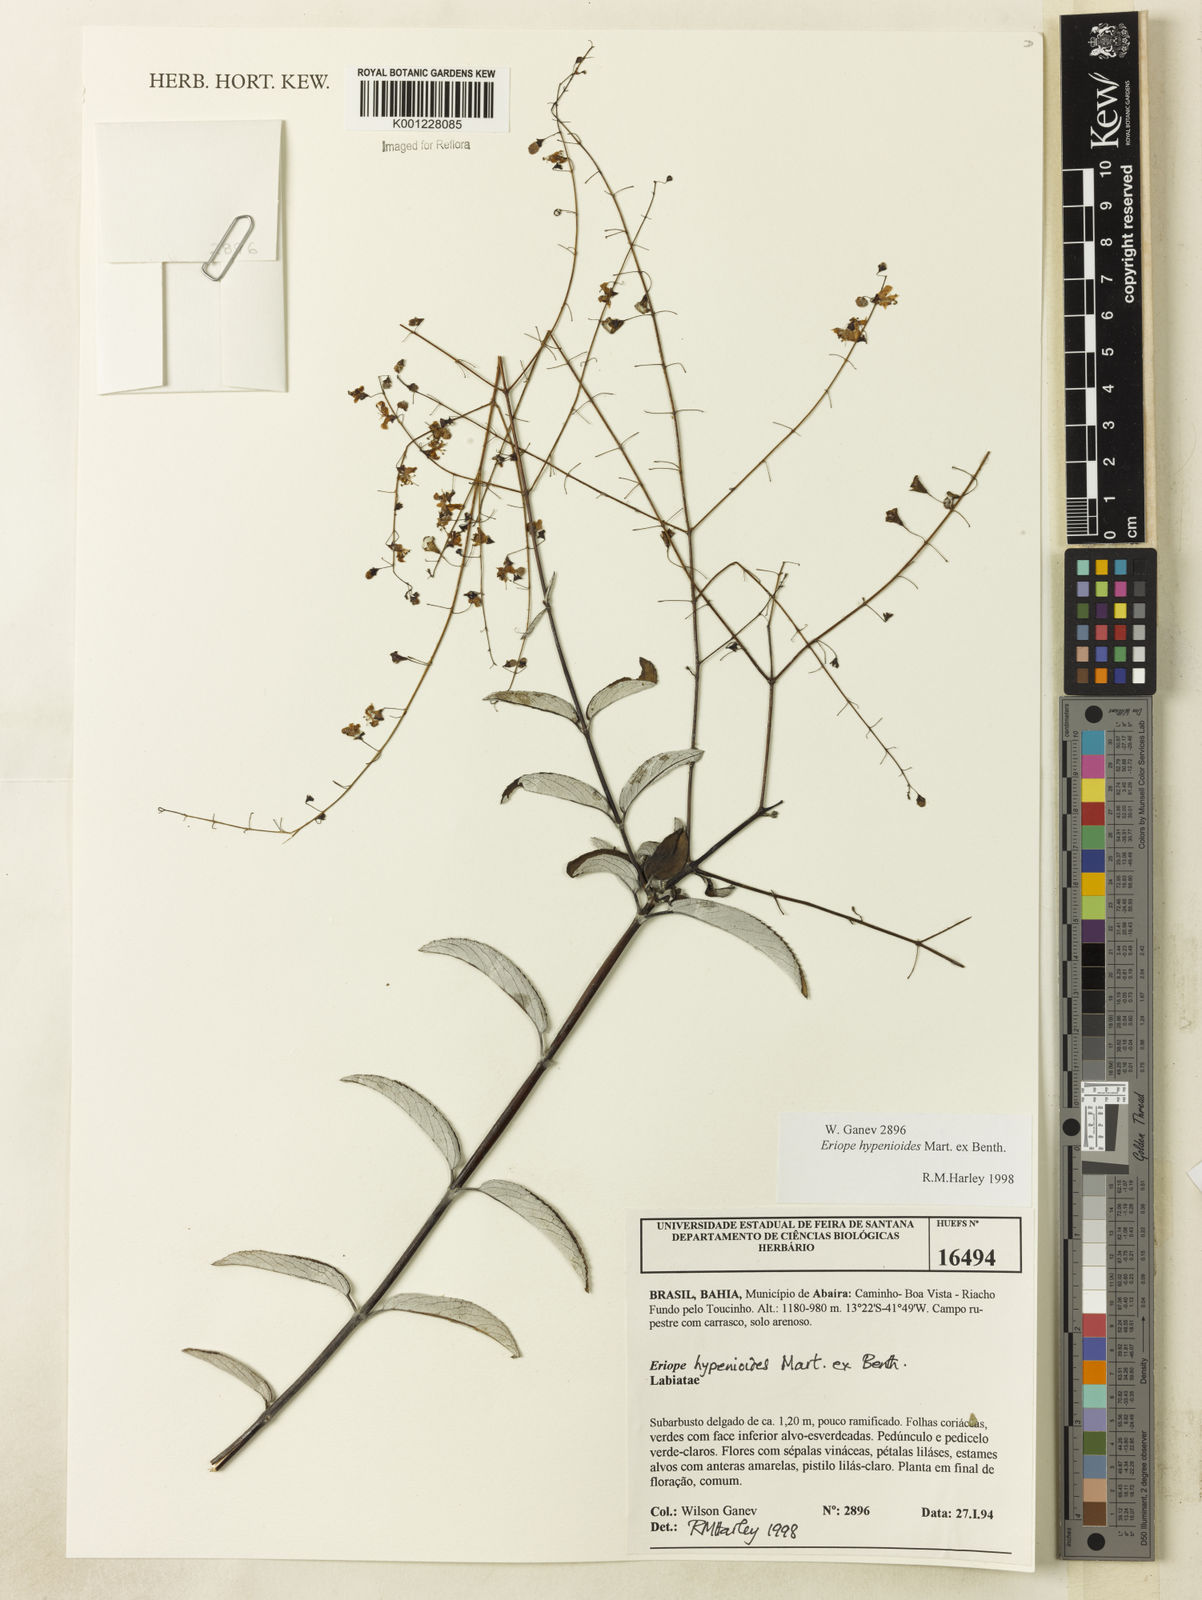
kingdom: Plantae
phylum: Tracheophyta
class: Magnoliopsida
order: Lamiales
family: Lamiaceae
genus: Eriope
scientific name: Eriope hypenioides
